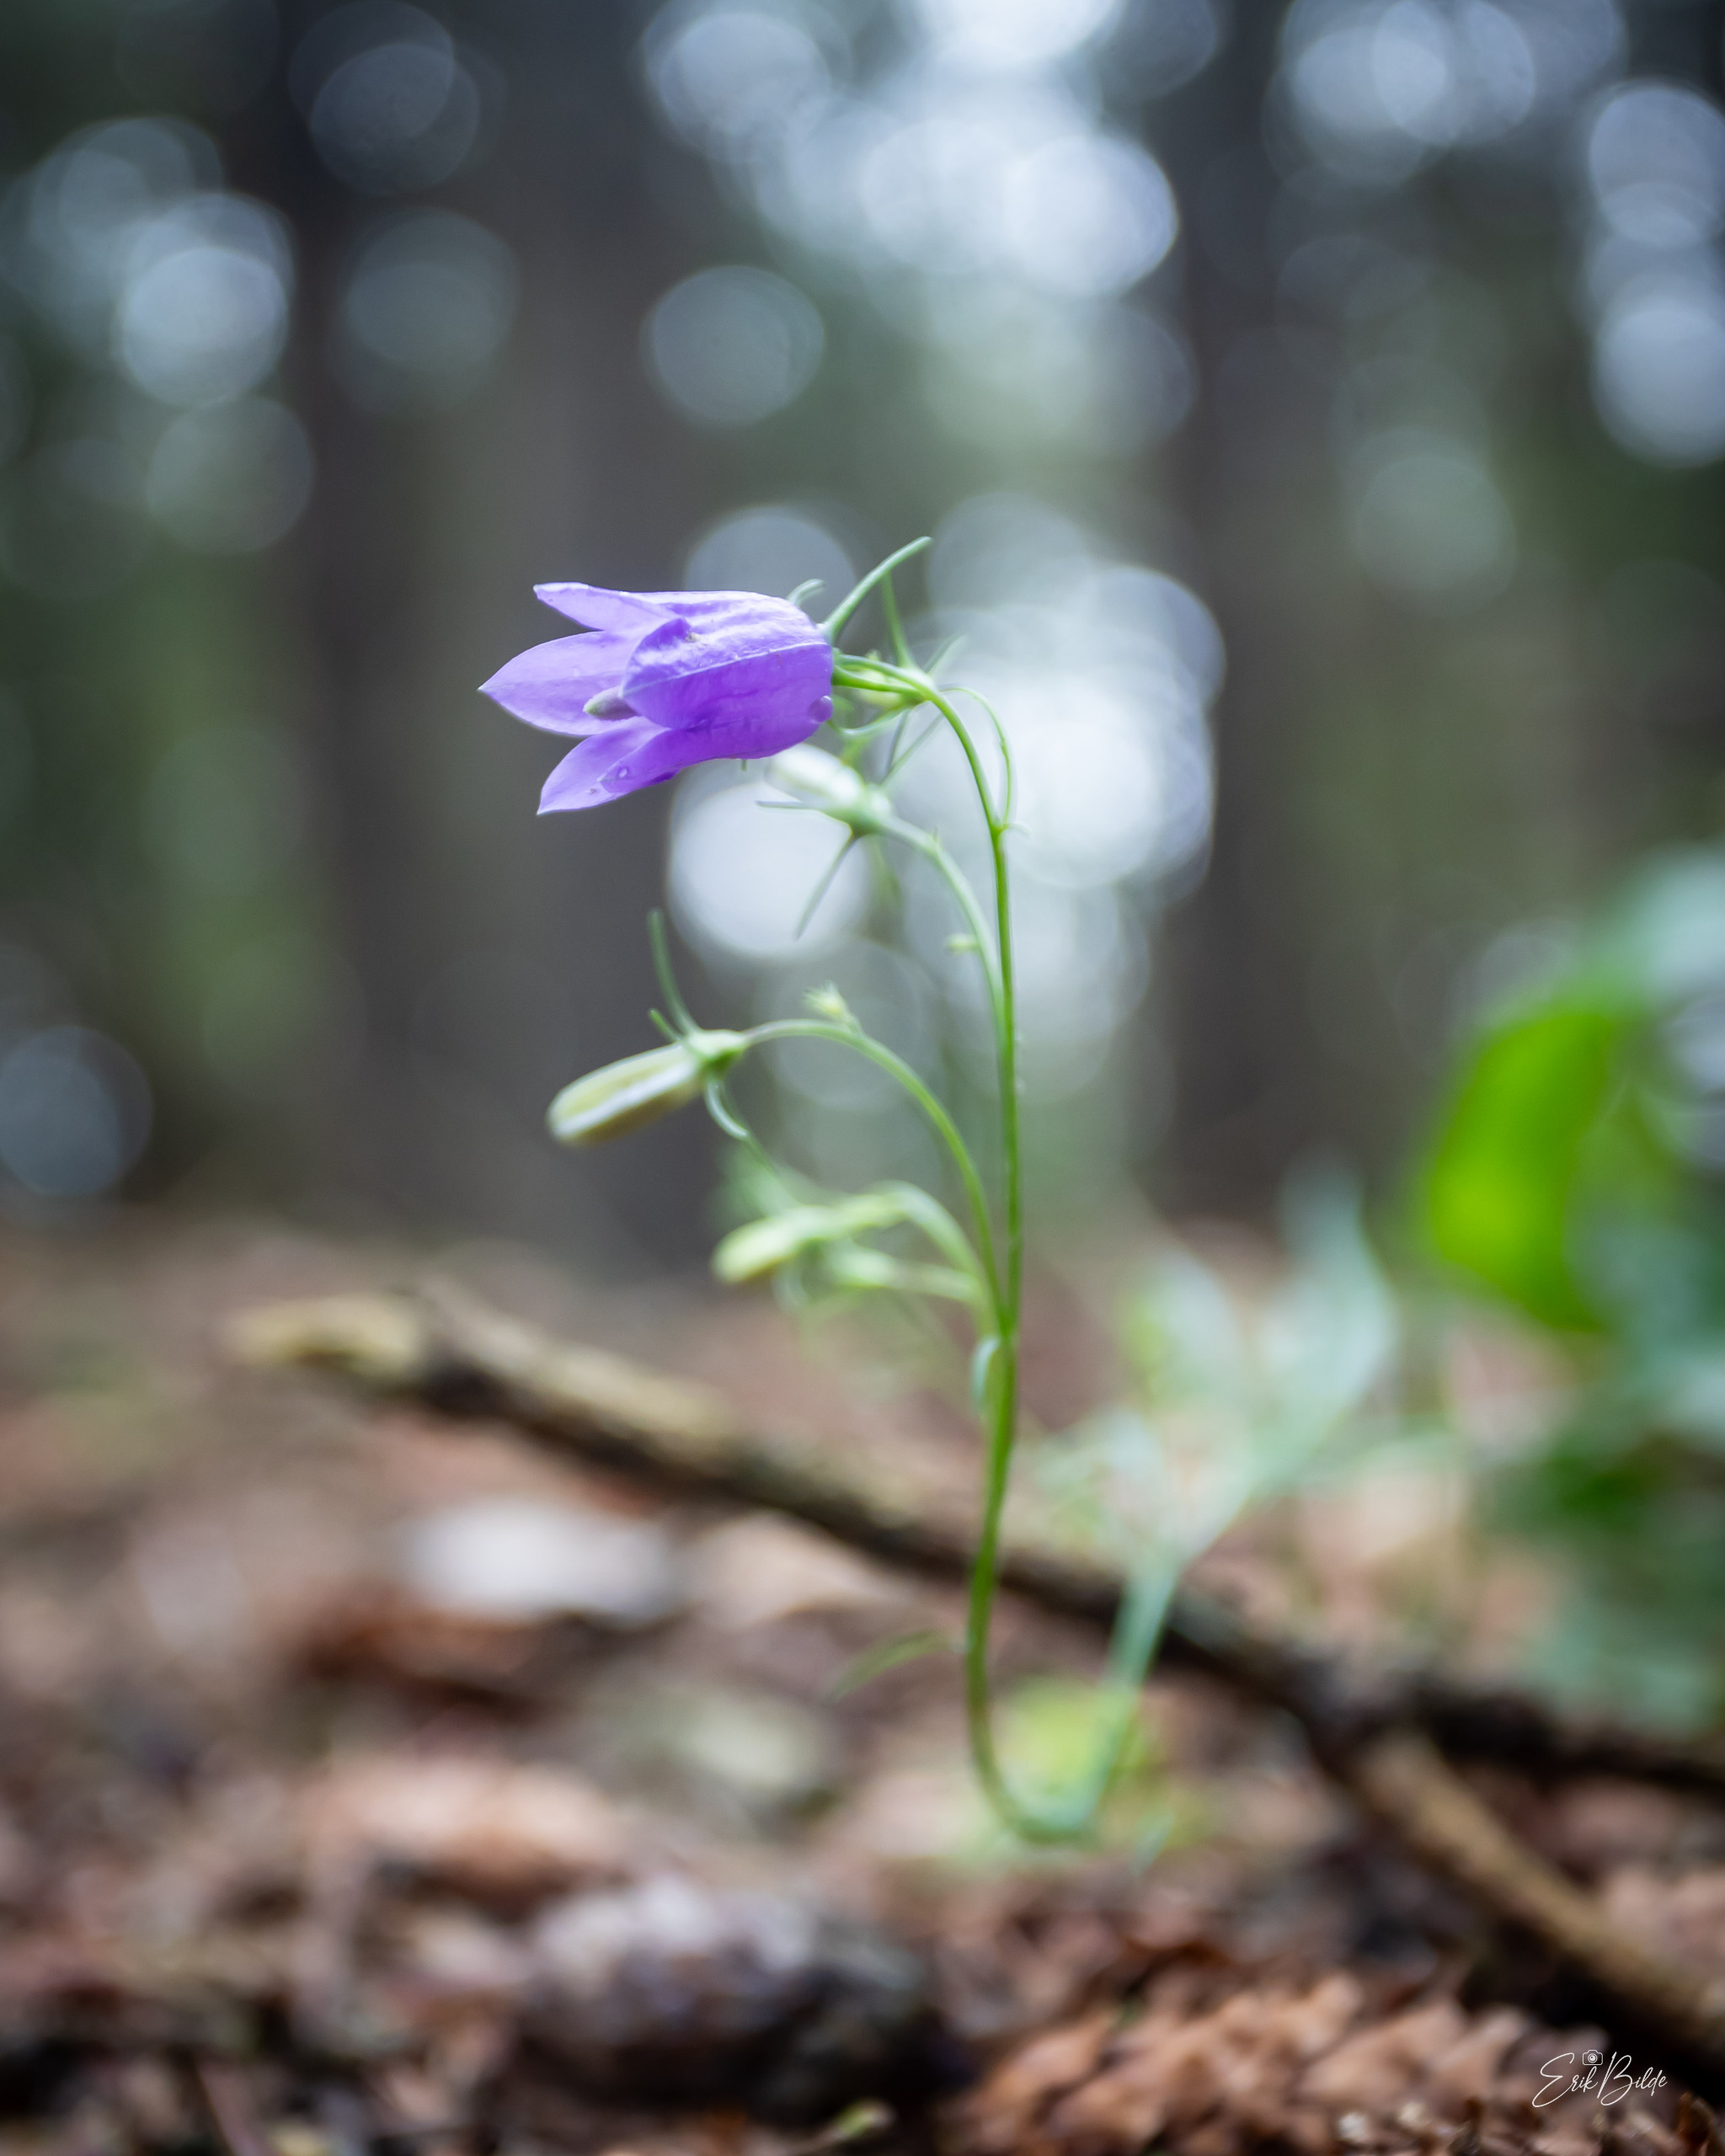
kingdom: Plantae
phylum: Tracheophyta
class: Magnoliopsida
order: Asterales
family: Campanulaceae
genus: Campanula
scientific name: Campanula rotundifolia
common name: Liden klokke
